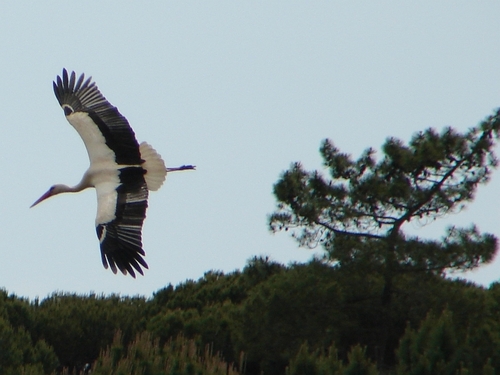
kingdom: Animalia
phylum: Chordata
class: Aves
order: Ciconiiformes
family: Ciconiidae
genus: Ciconia
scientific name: Ciconia ciconia
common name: White stork
